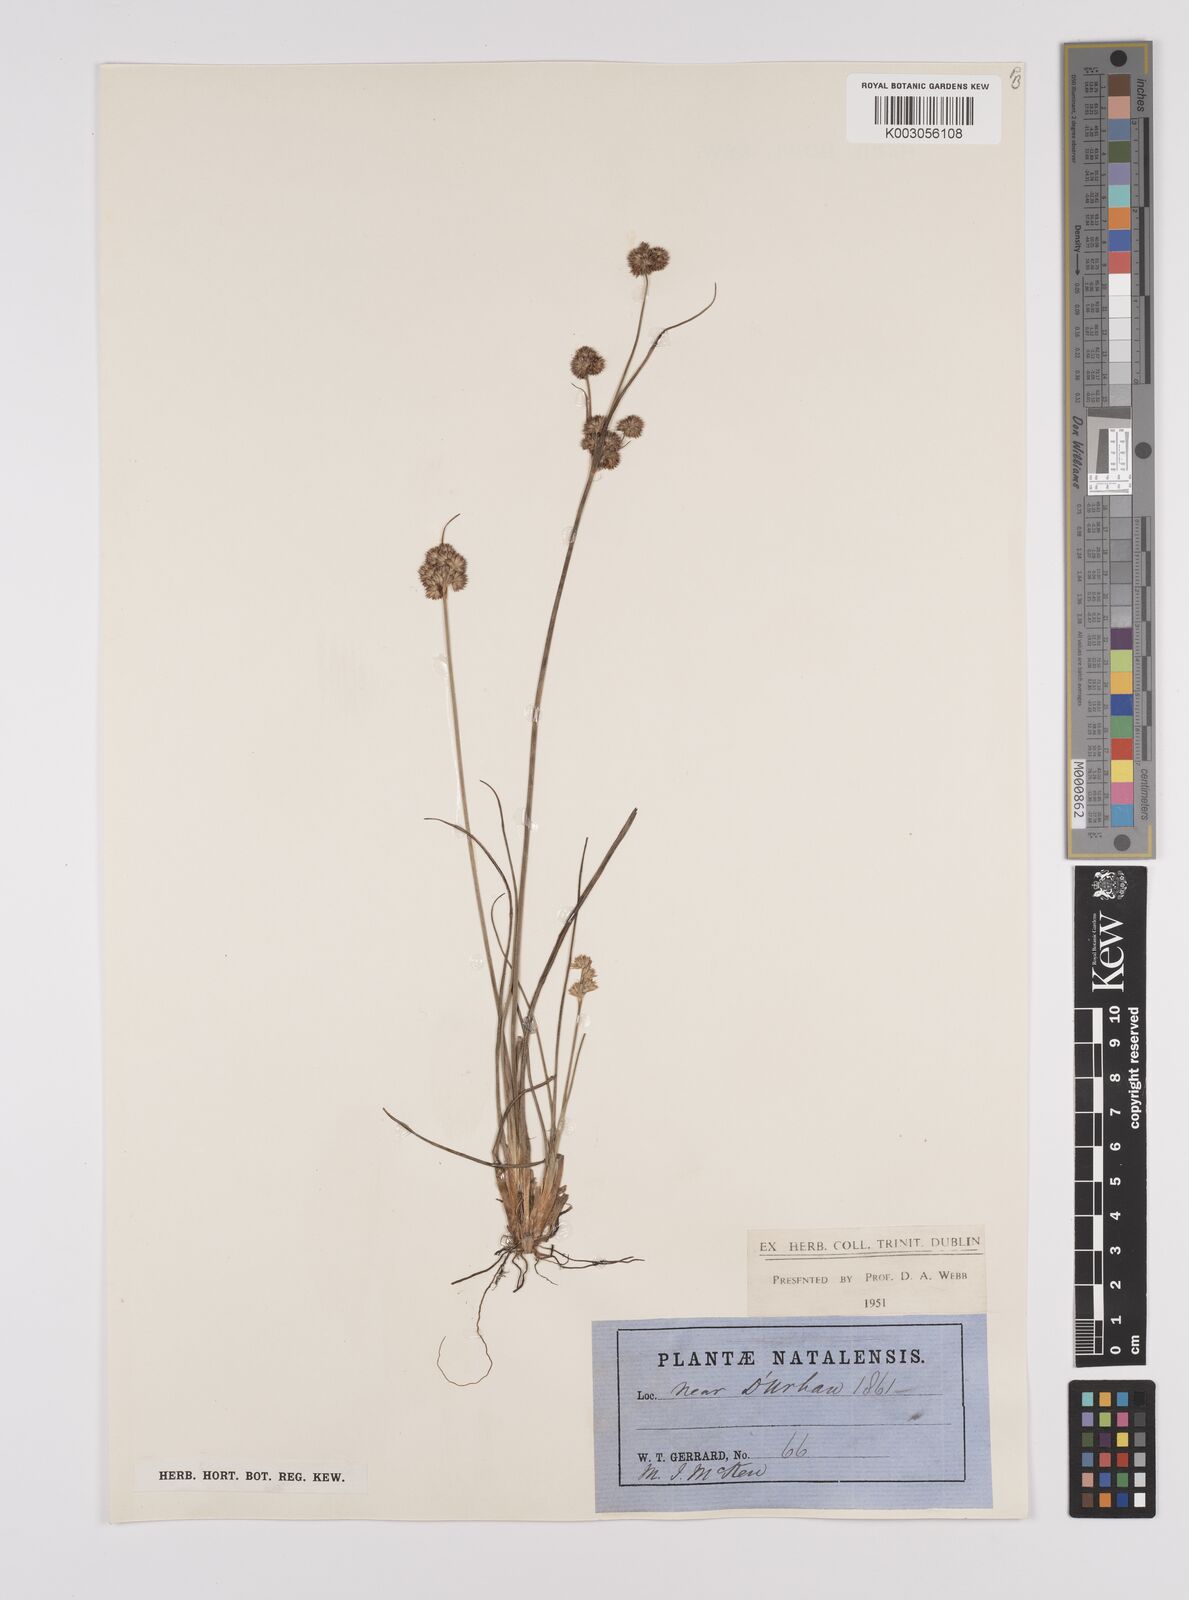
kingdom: Plantae
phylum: Tracheophyta
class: Liliopsida
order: Poales
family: Juncaceae
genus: Juncus
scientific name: Juncus
